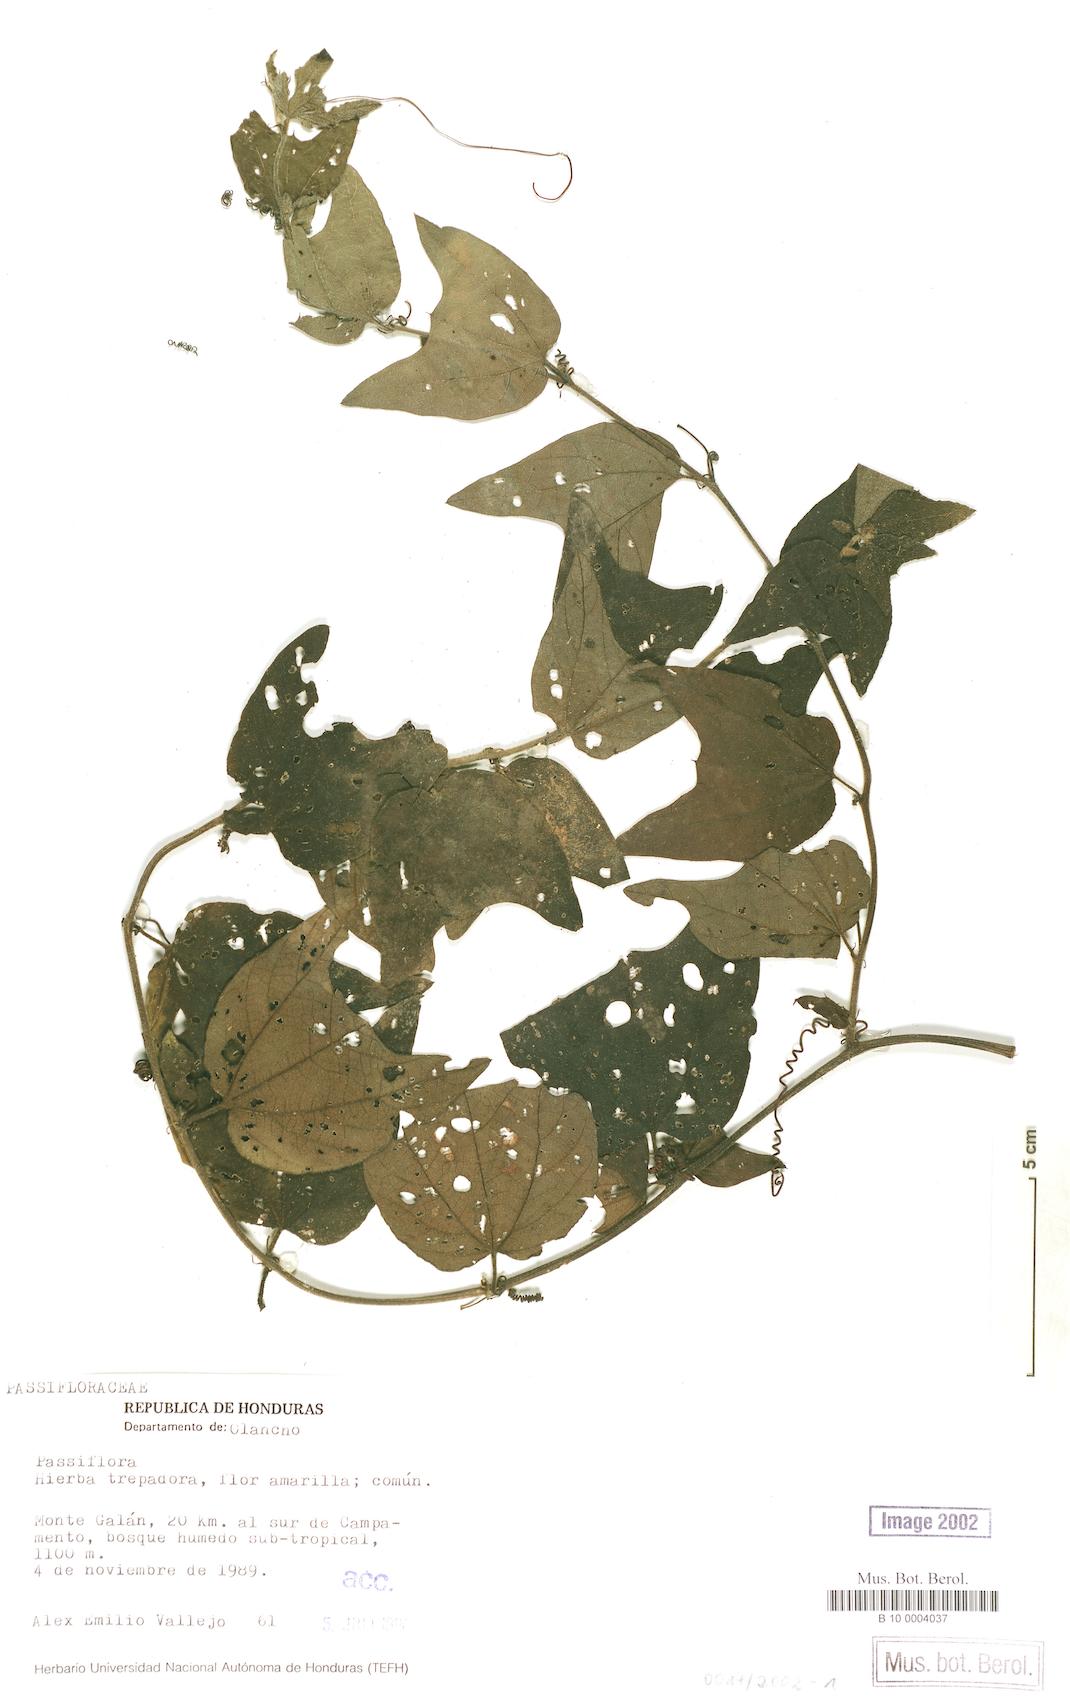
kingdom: Plantae
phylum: Tracheophyta
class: Magnoliopsida
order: Malpighiales
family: Passifloraceae
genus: Passiflora
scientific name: Passiflora
